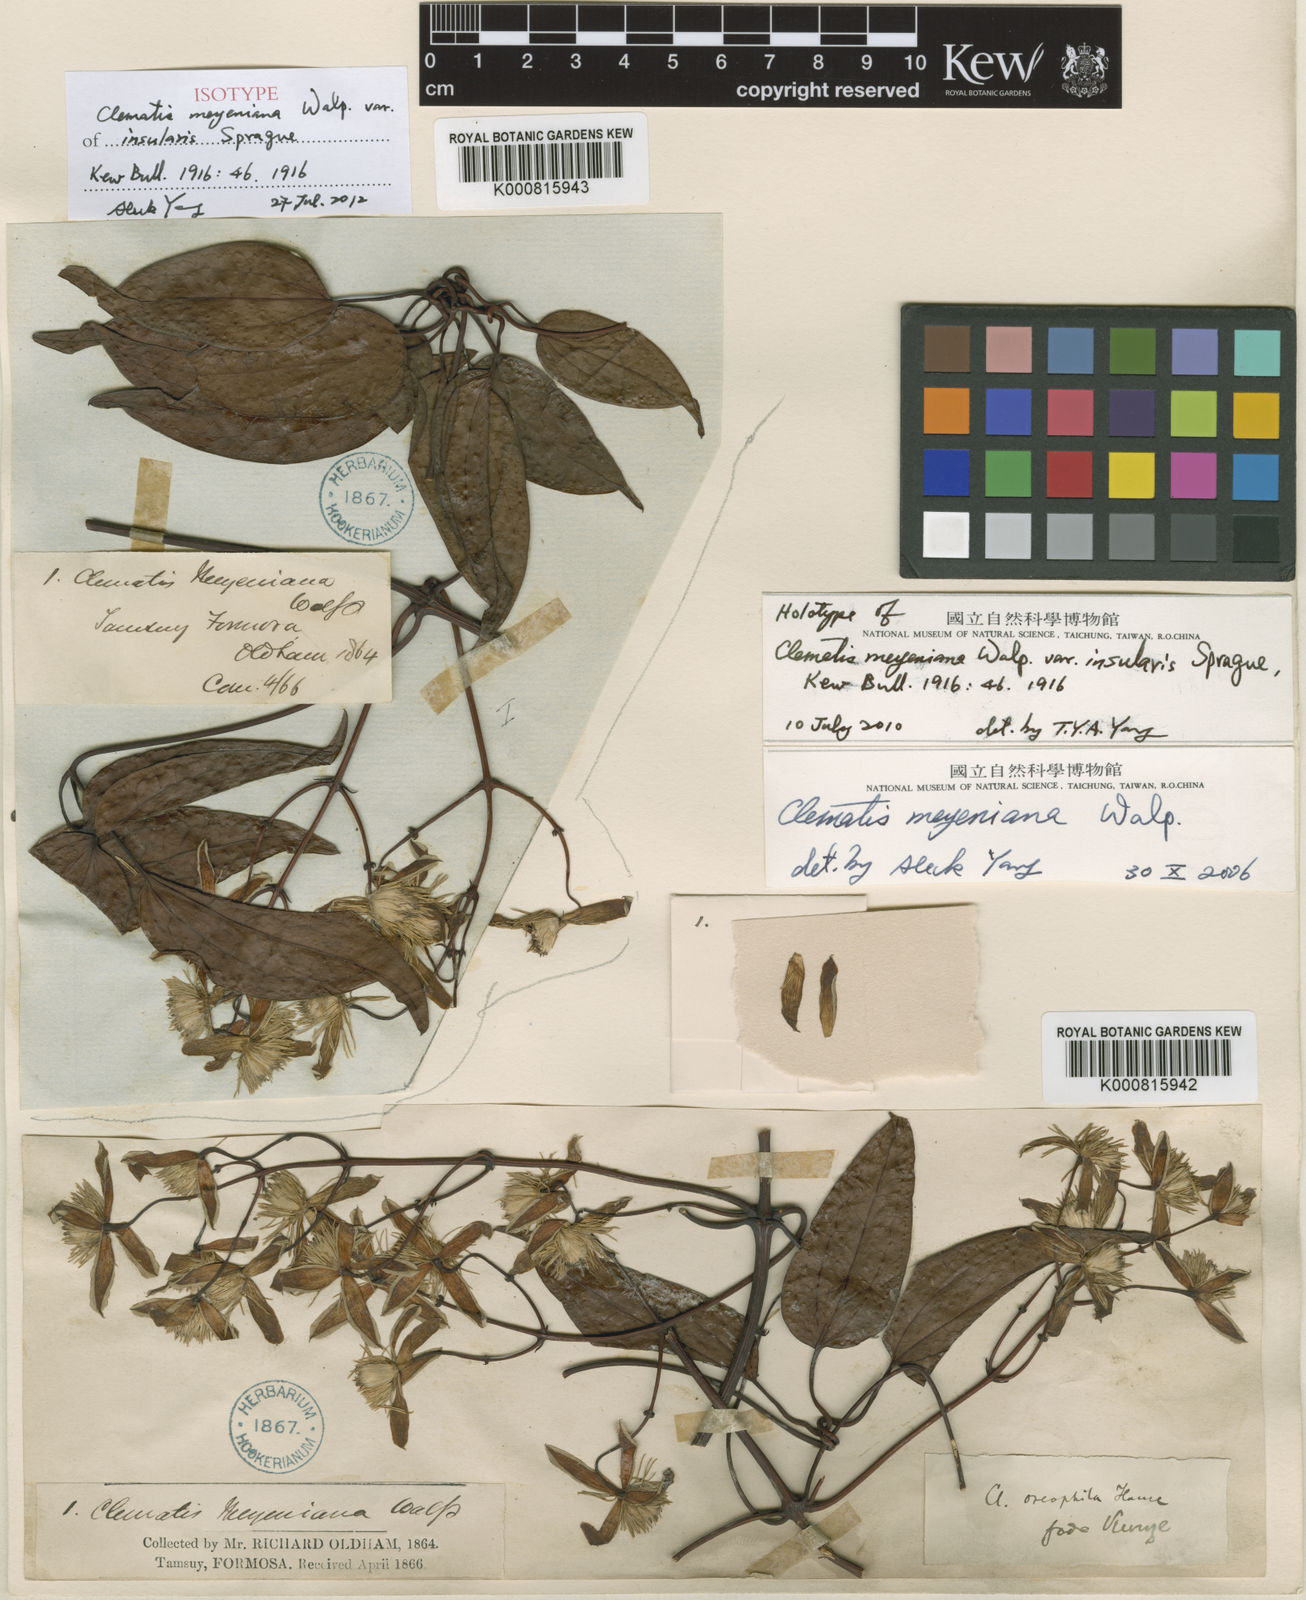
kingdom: Plantae
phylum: Tracheophyta
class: Magnoliopsida
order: Ranunculales
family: Ranunculaceae
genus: Clematis
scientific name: Clematis meyeniana
